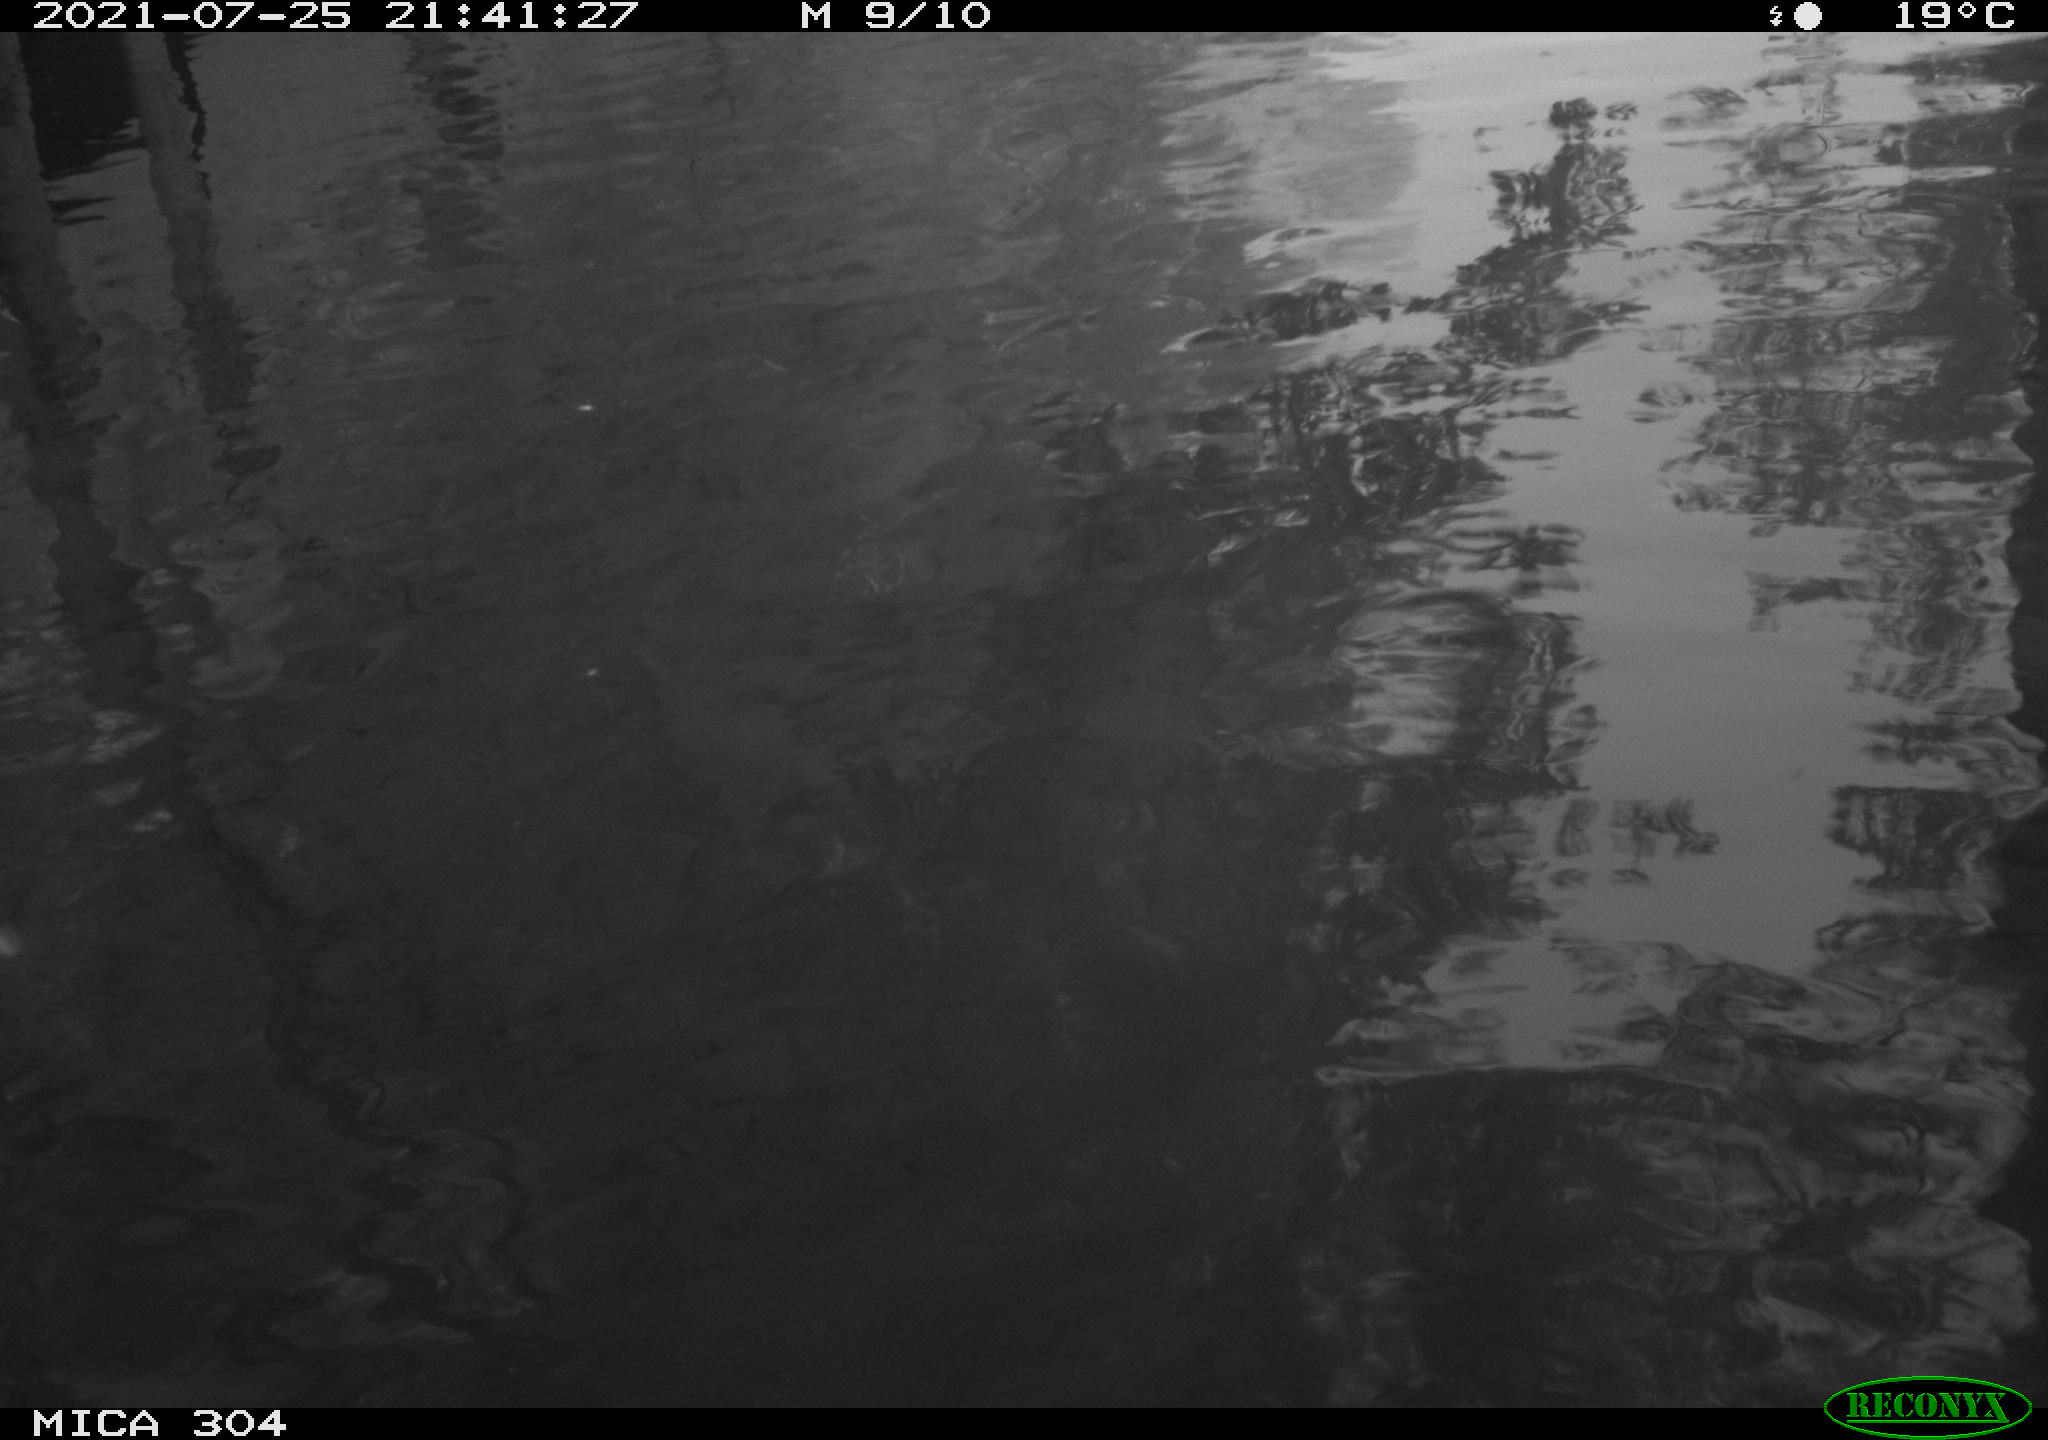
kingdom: Animalia
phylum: Chordata
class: Aves
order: Anseriformes
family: Anatidae
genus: Anas
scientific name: Anas platyrhynchos
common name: Mallard
